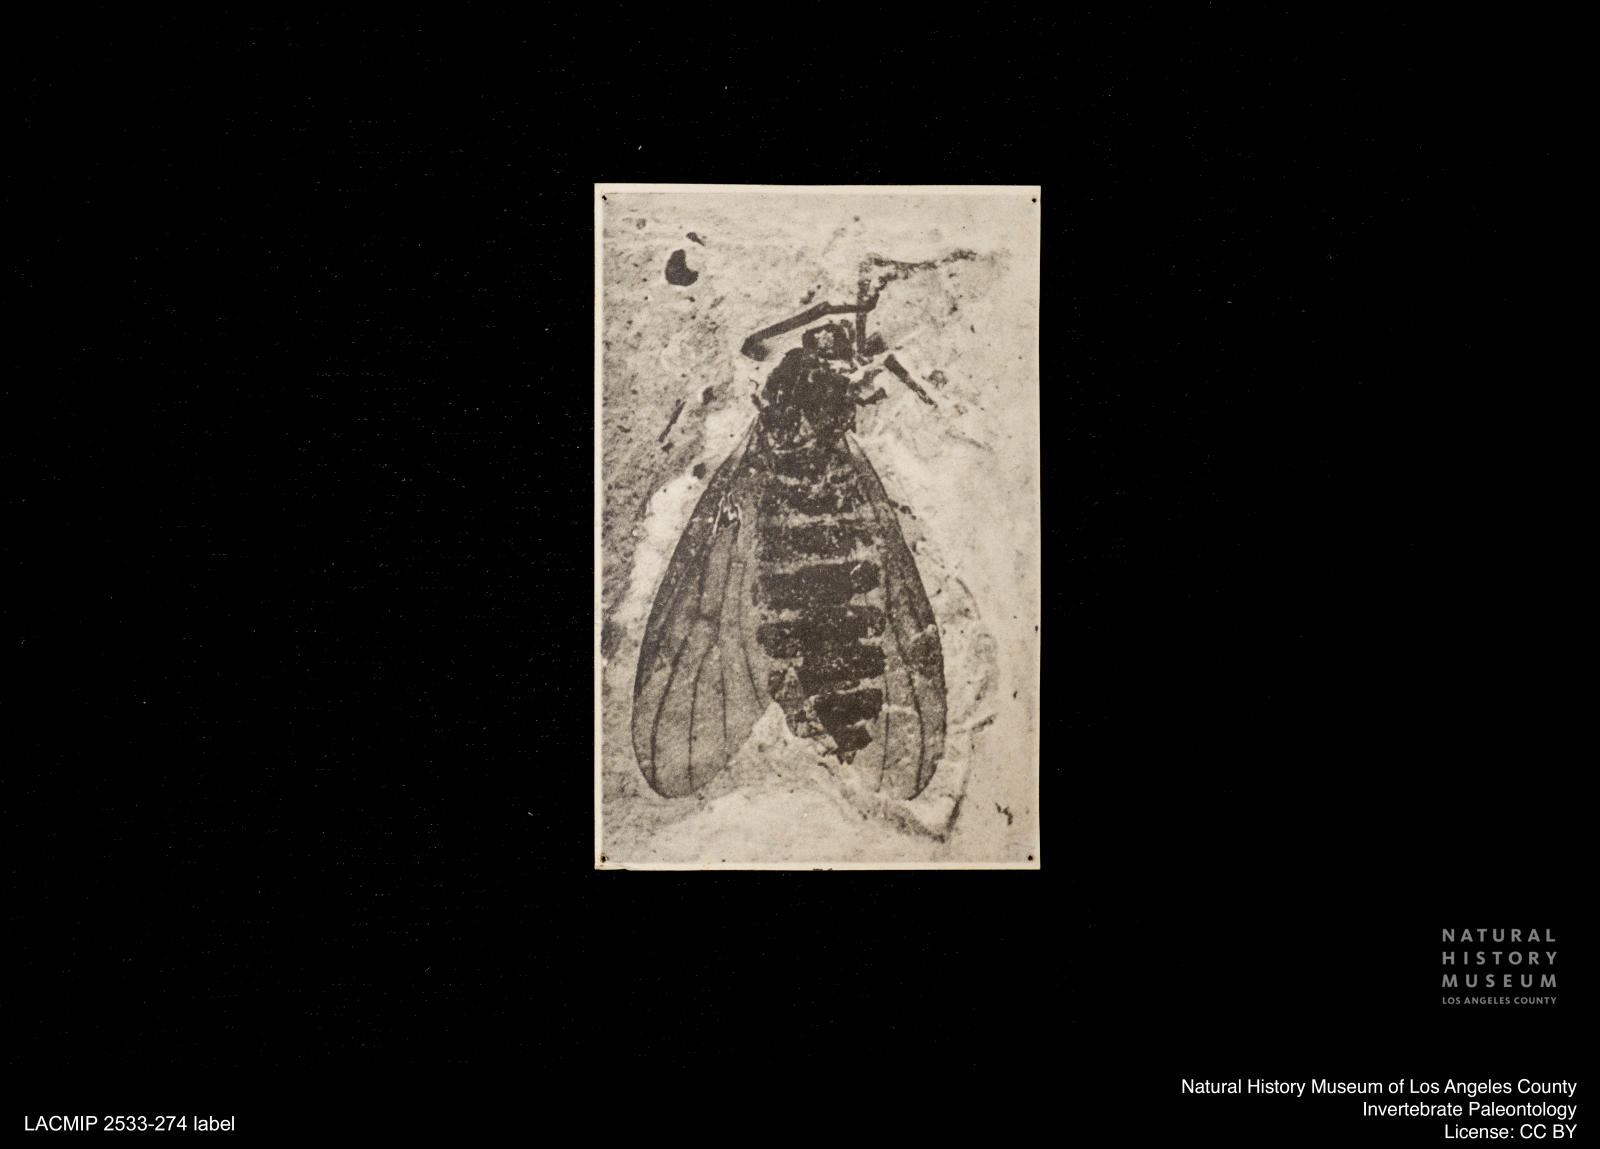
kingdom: Animalia
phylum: Arthropoda
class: Insecta
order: Diptera
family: Bibionidae
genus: Plecia
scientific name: Plecia hypogaea
